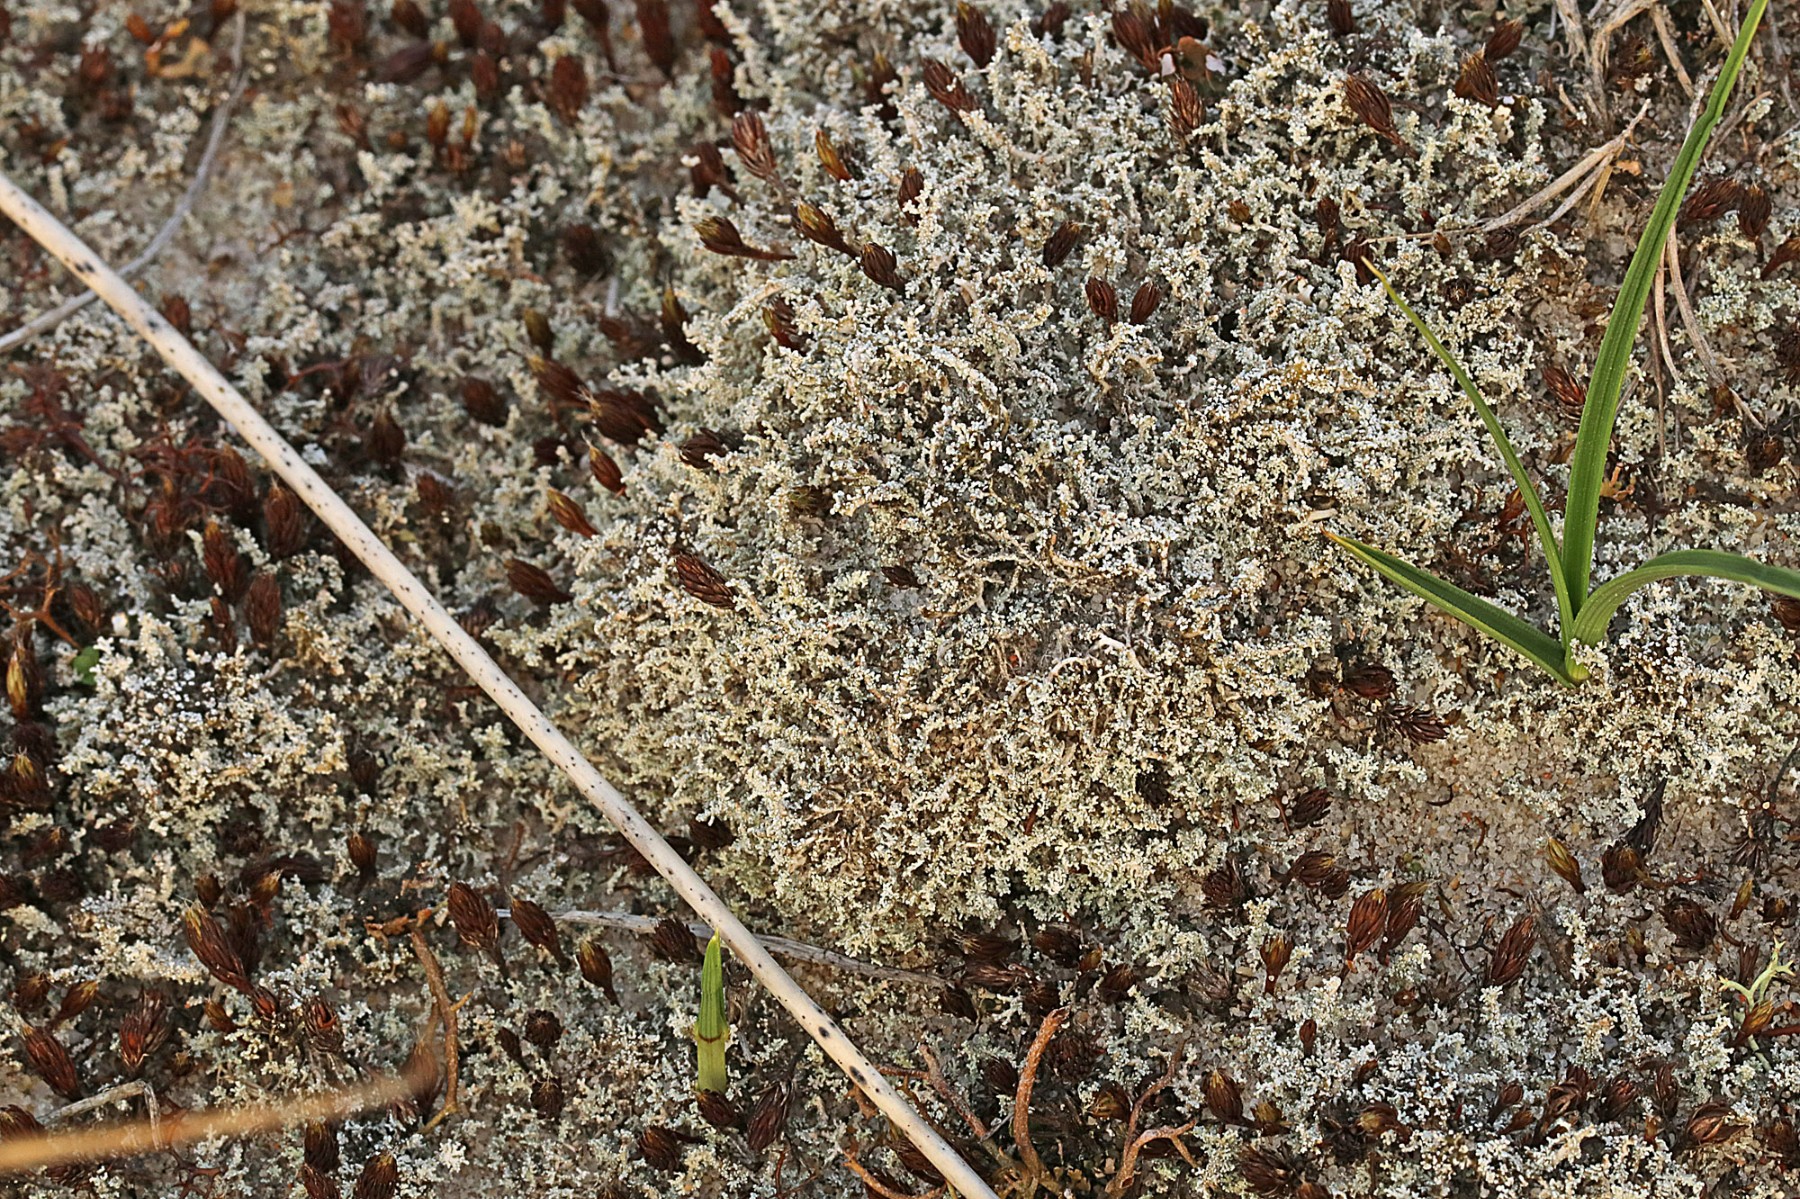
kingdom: Fungi
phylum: Ascomycota
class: Lecanoromycetes
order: Lecanorales
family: Stereocaulaceae
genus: Stereocaulon
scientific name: Stereocaulon condensatum
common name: lav korallav
